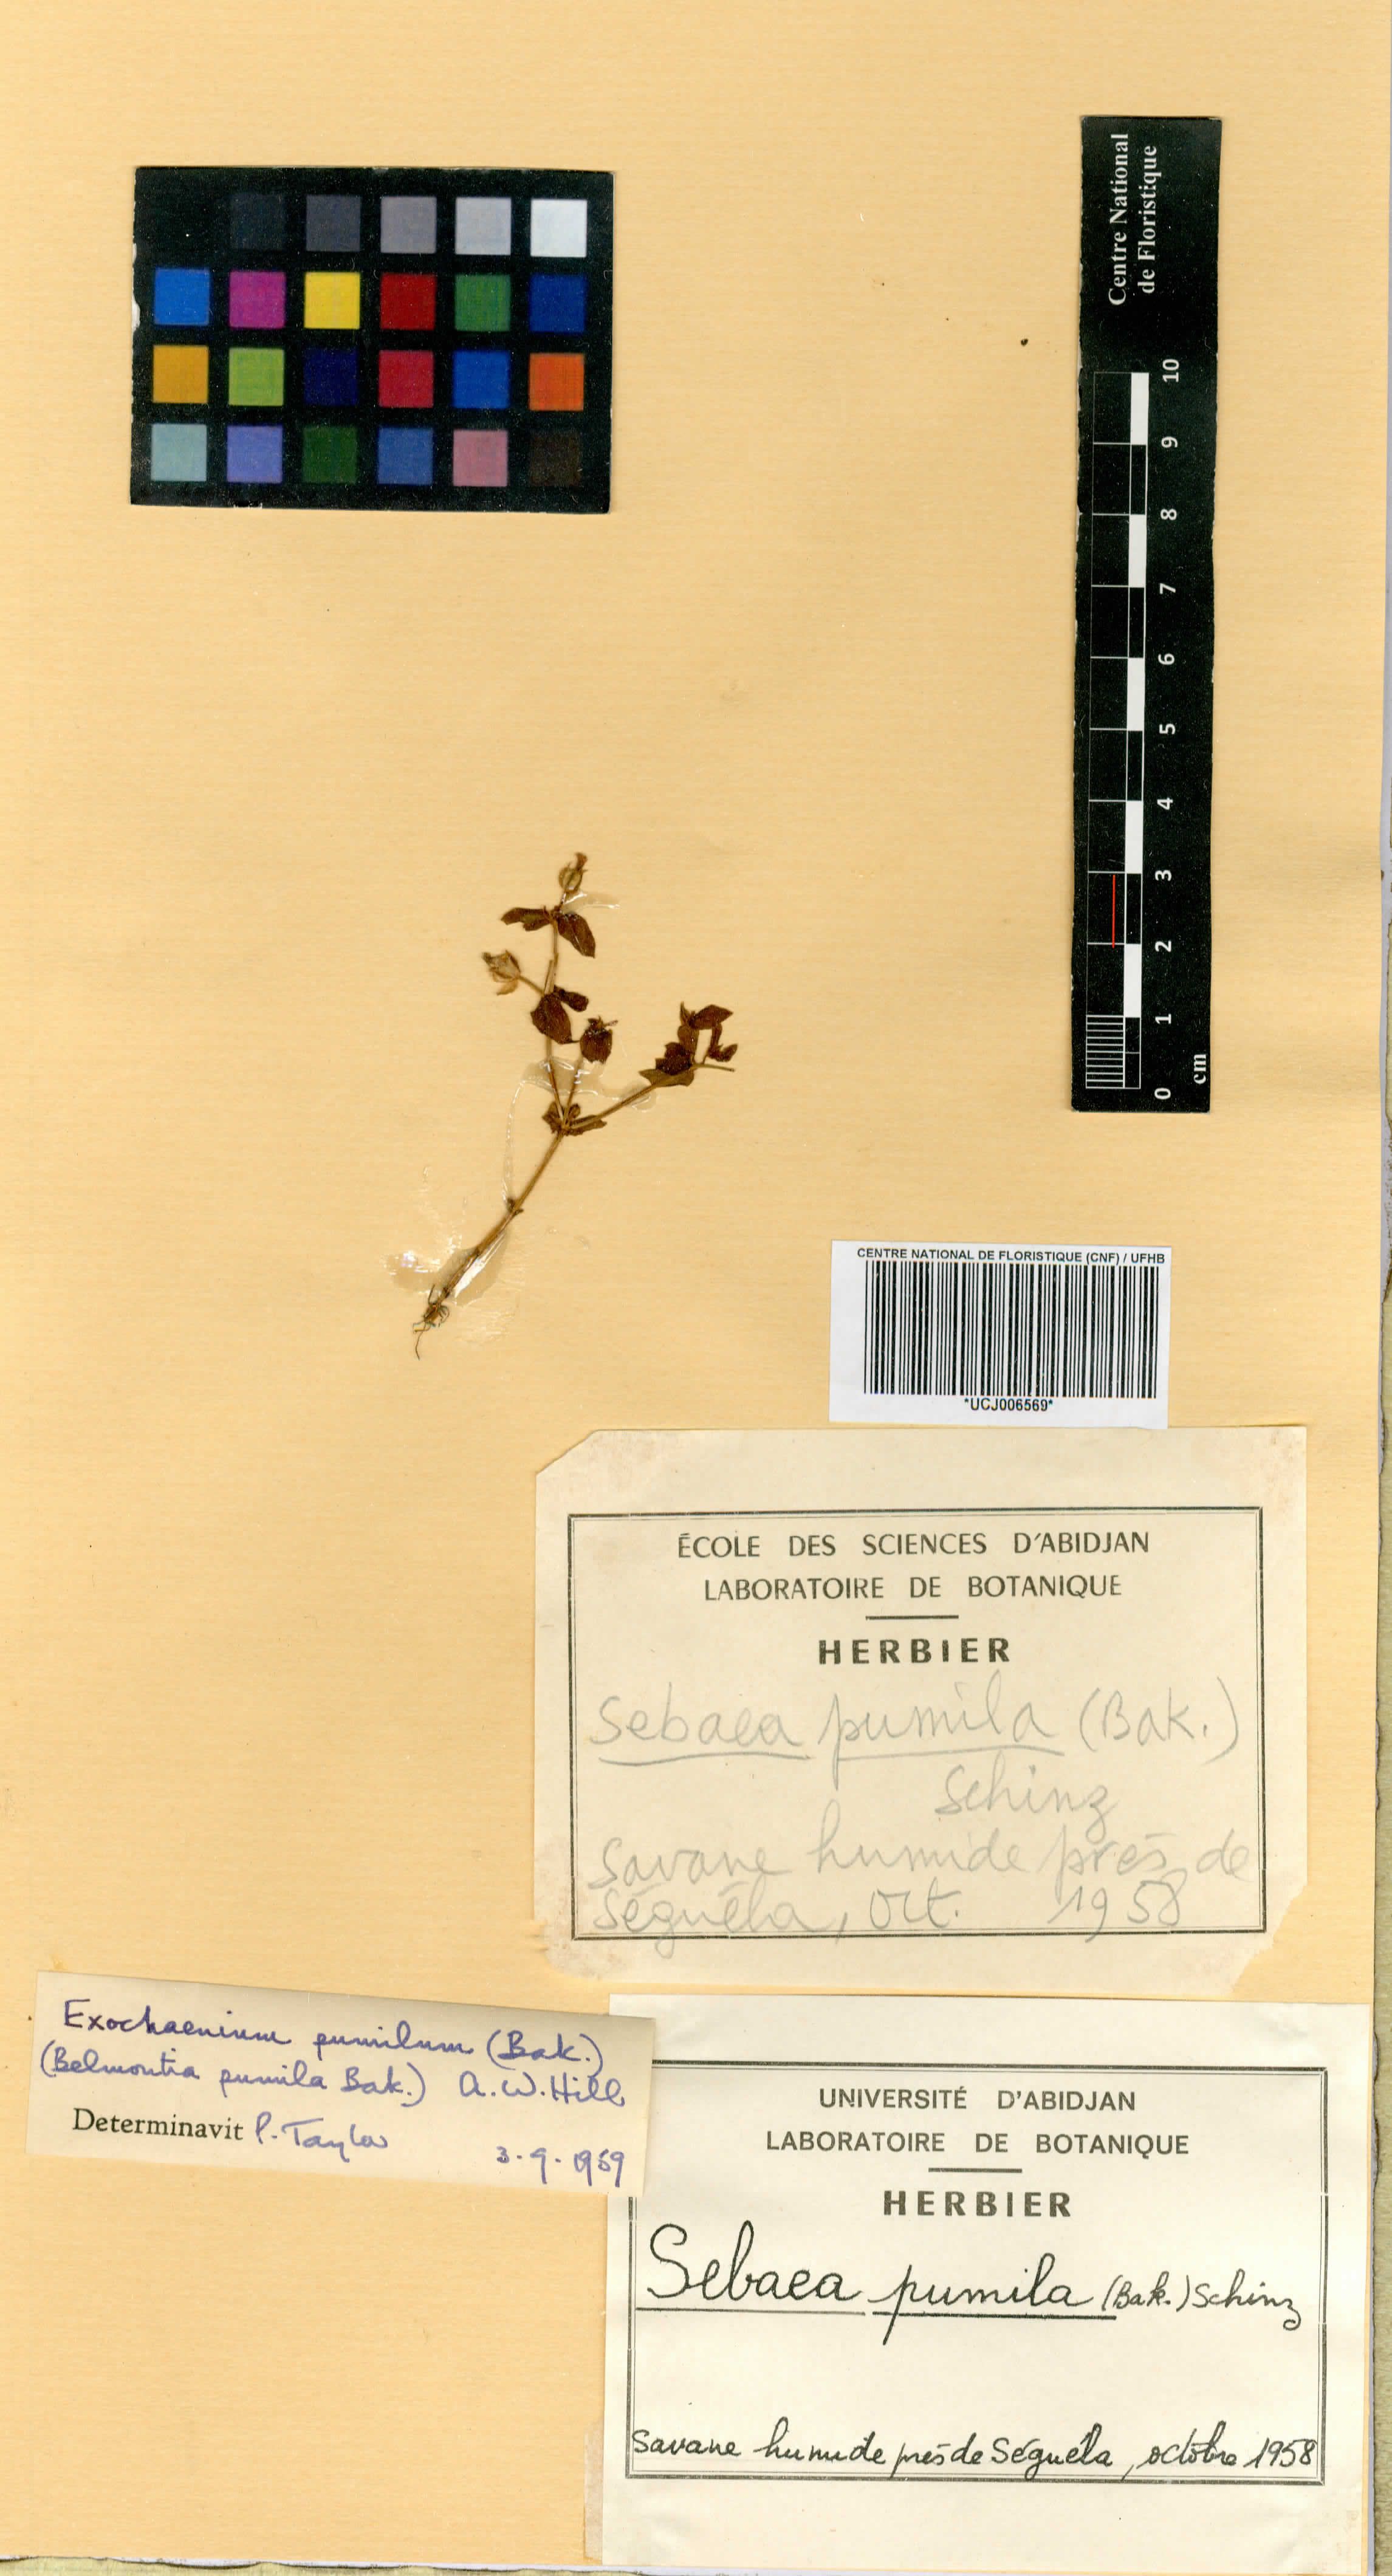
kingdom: Plantae
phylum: Tracheophyta
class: Magnoliopsida
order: Gentianales
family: Gentianaceae
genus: Exochaenium
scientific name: Exochaenium pumilum
